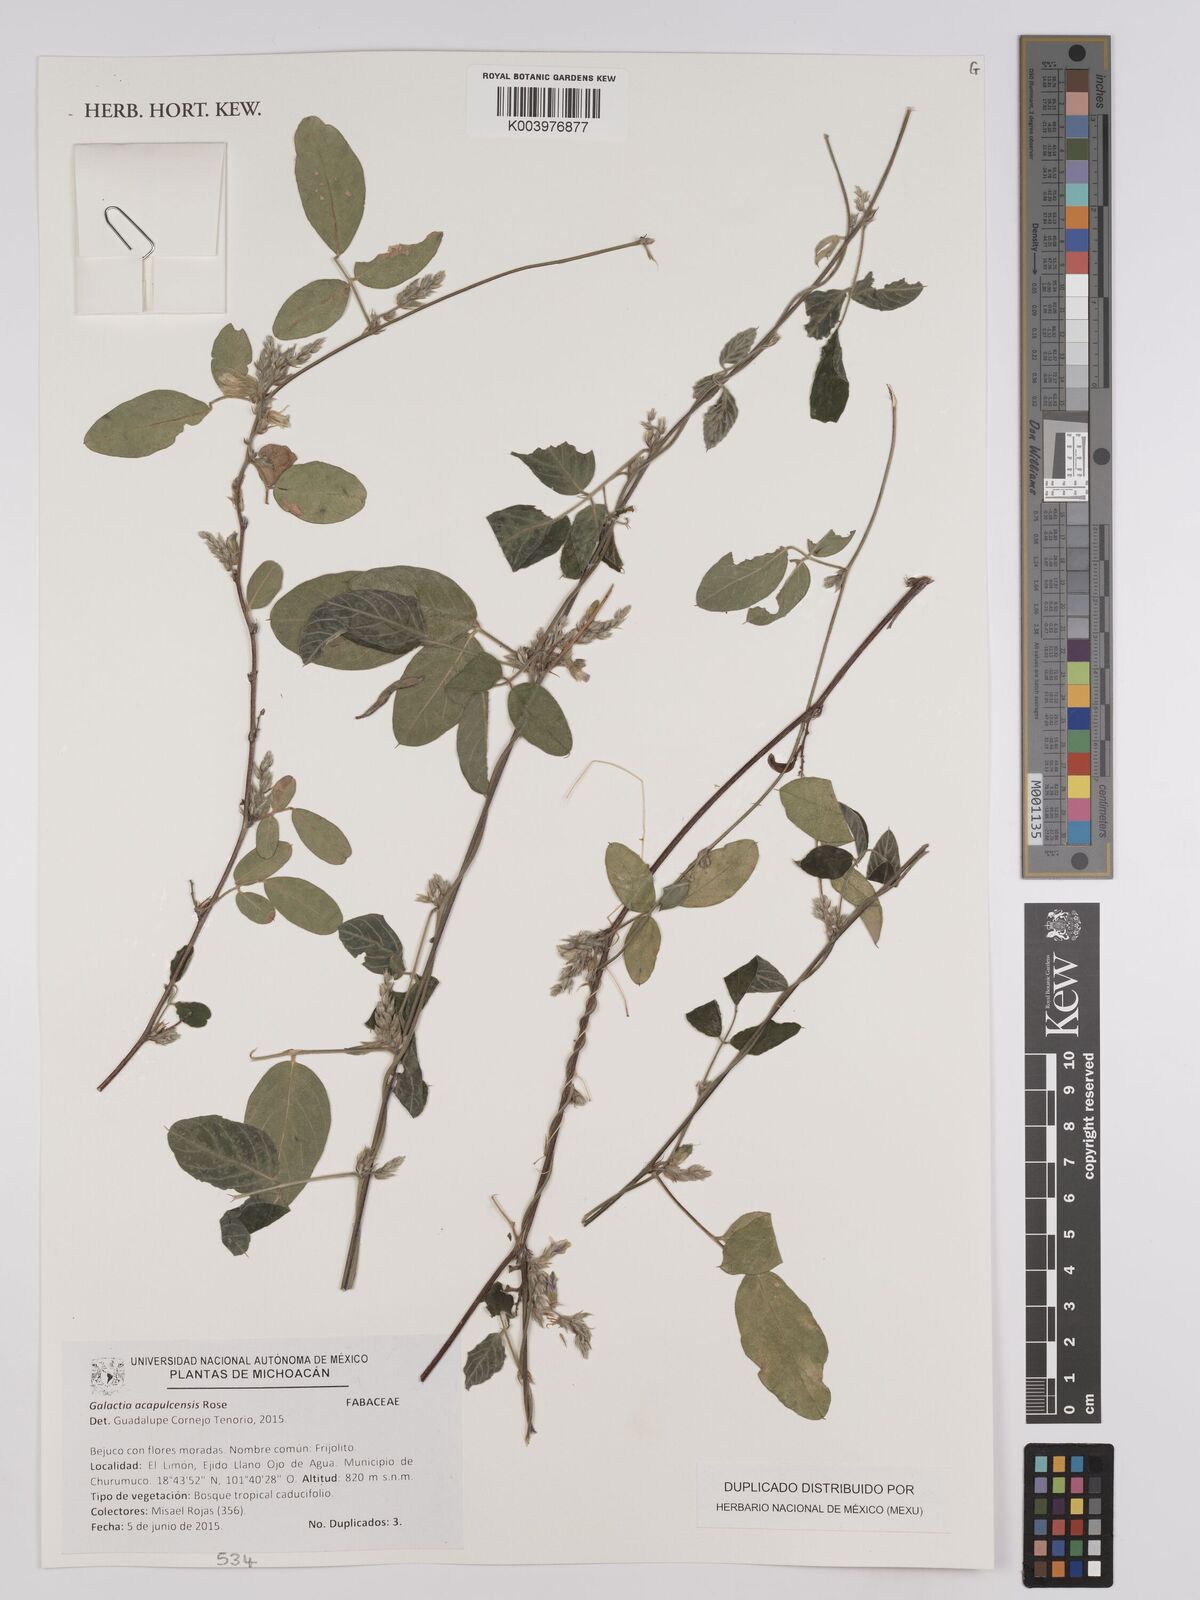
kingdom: Plantae
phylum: Tracheophyta
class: Magnoliopsida
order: Fabales
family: Fabaceae
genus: Galactia
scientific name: Galactia acapulcensis
